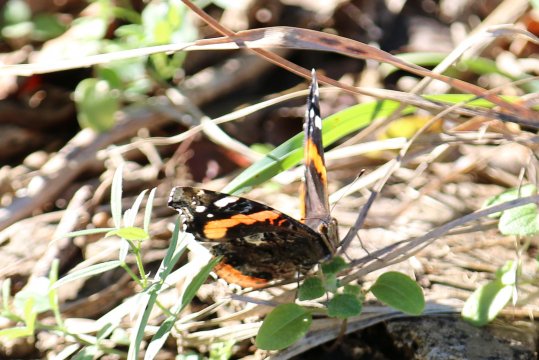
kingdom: Animalia
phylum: Arthropoda
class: Insecta
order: Lepidoptera
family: Nymphalidae
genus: Vanessa
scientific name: Vanessa atalanta
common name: Red Admiral
